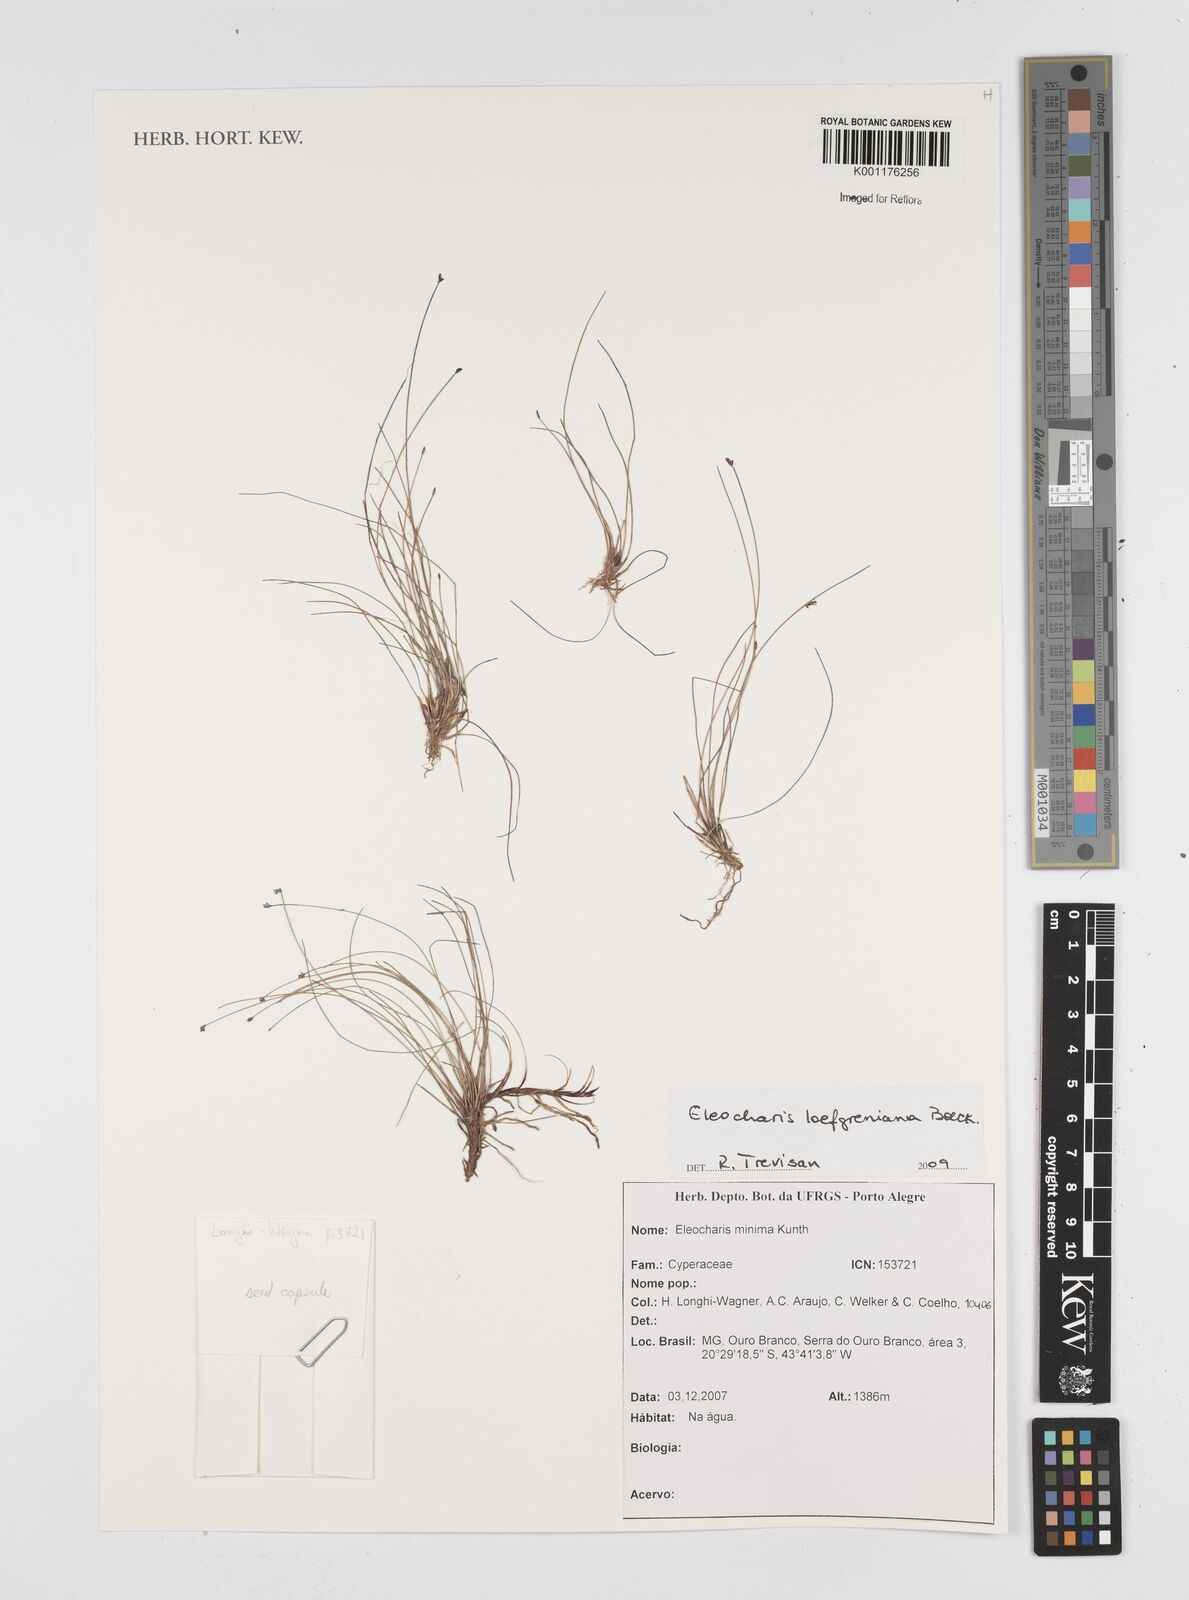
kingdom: Plantae
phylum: Tracheophyta
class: Liliopsida
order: Poales
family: Cyperaceae
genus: Eleocharis
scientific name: Eleocharis loefgreniana
